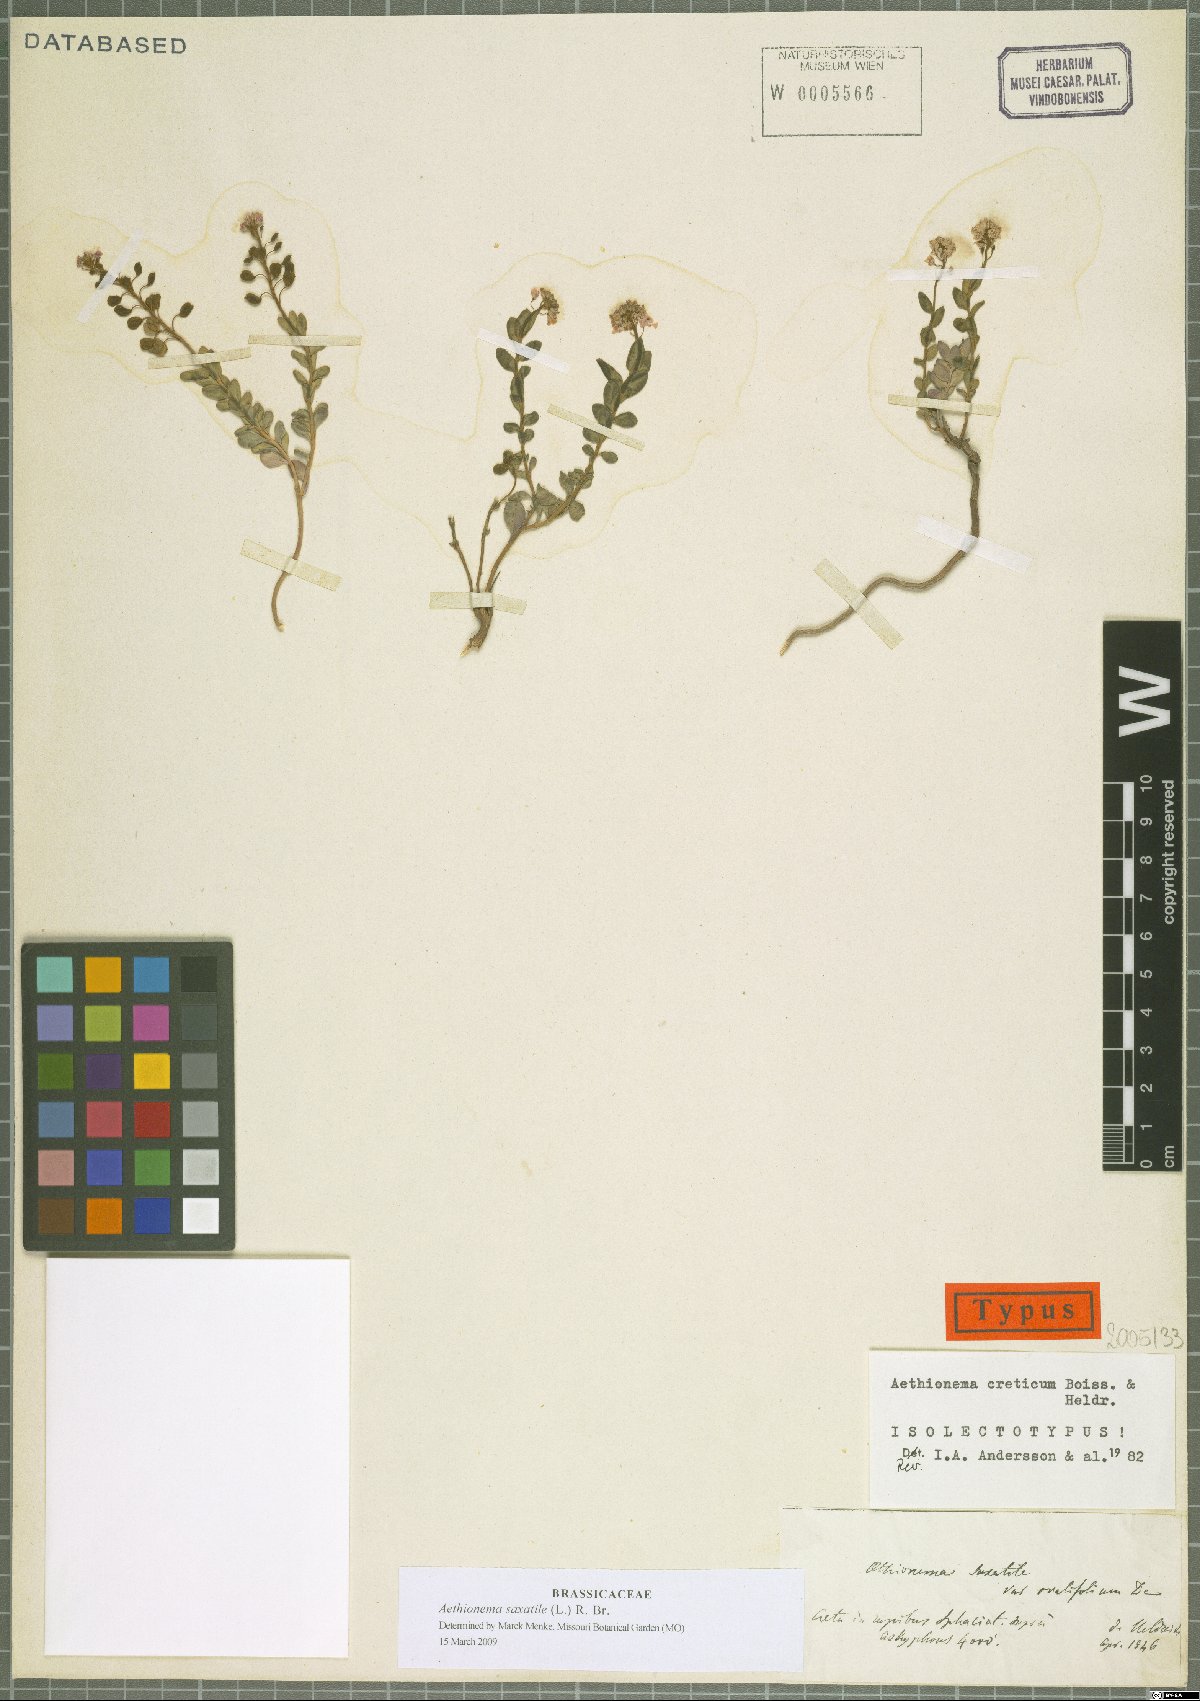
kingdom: Plantae
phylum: Tracheophyta
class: Magnoliopsida
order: Brassicales
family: Brassicaceae
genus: Aethionema
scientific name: Aethionema saxatile
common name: Burnt candytuft
